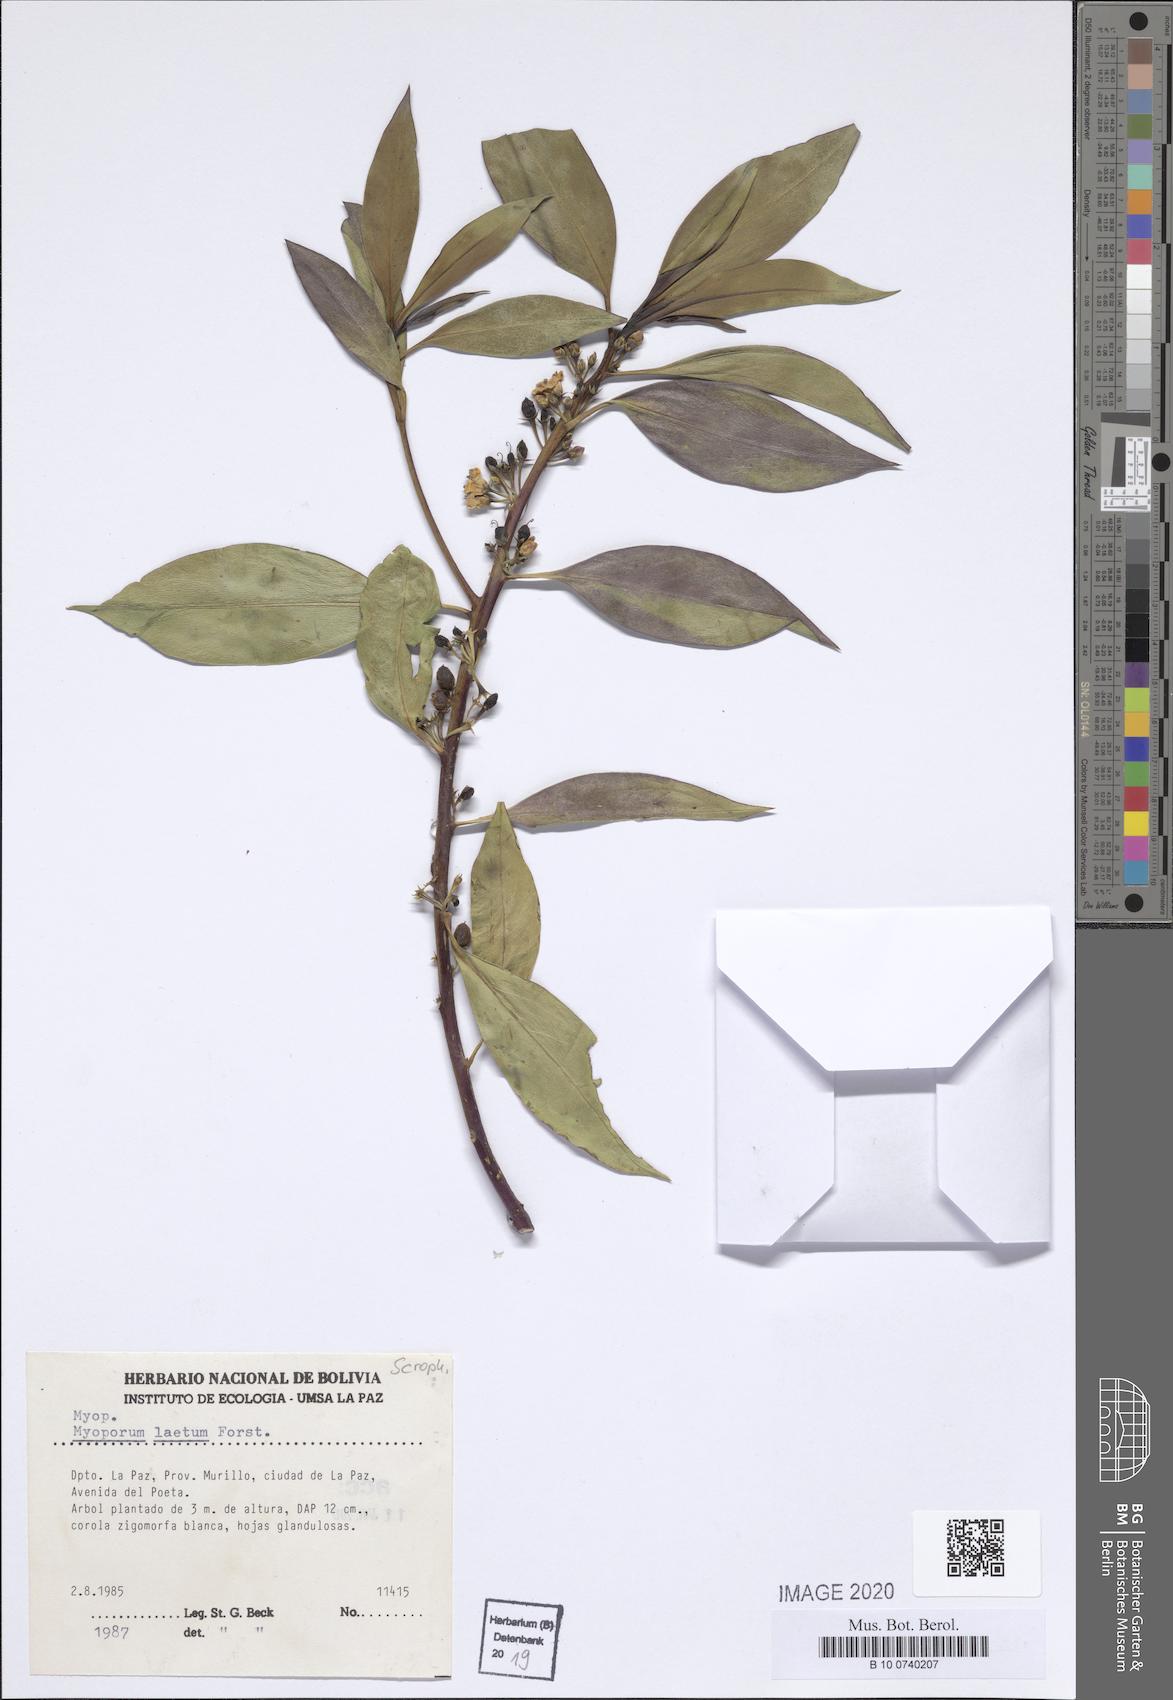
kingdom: Plantae
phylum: Tracheophyta
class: Magnoliopsida
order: Lamiales
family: Scrophulariaceae
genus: Myoporum
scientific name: Myoporum laetum
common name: Ngaio tree
